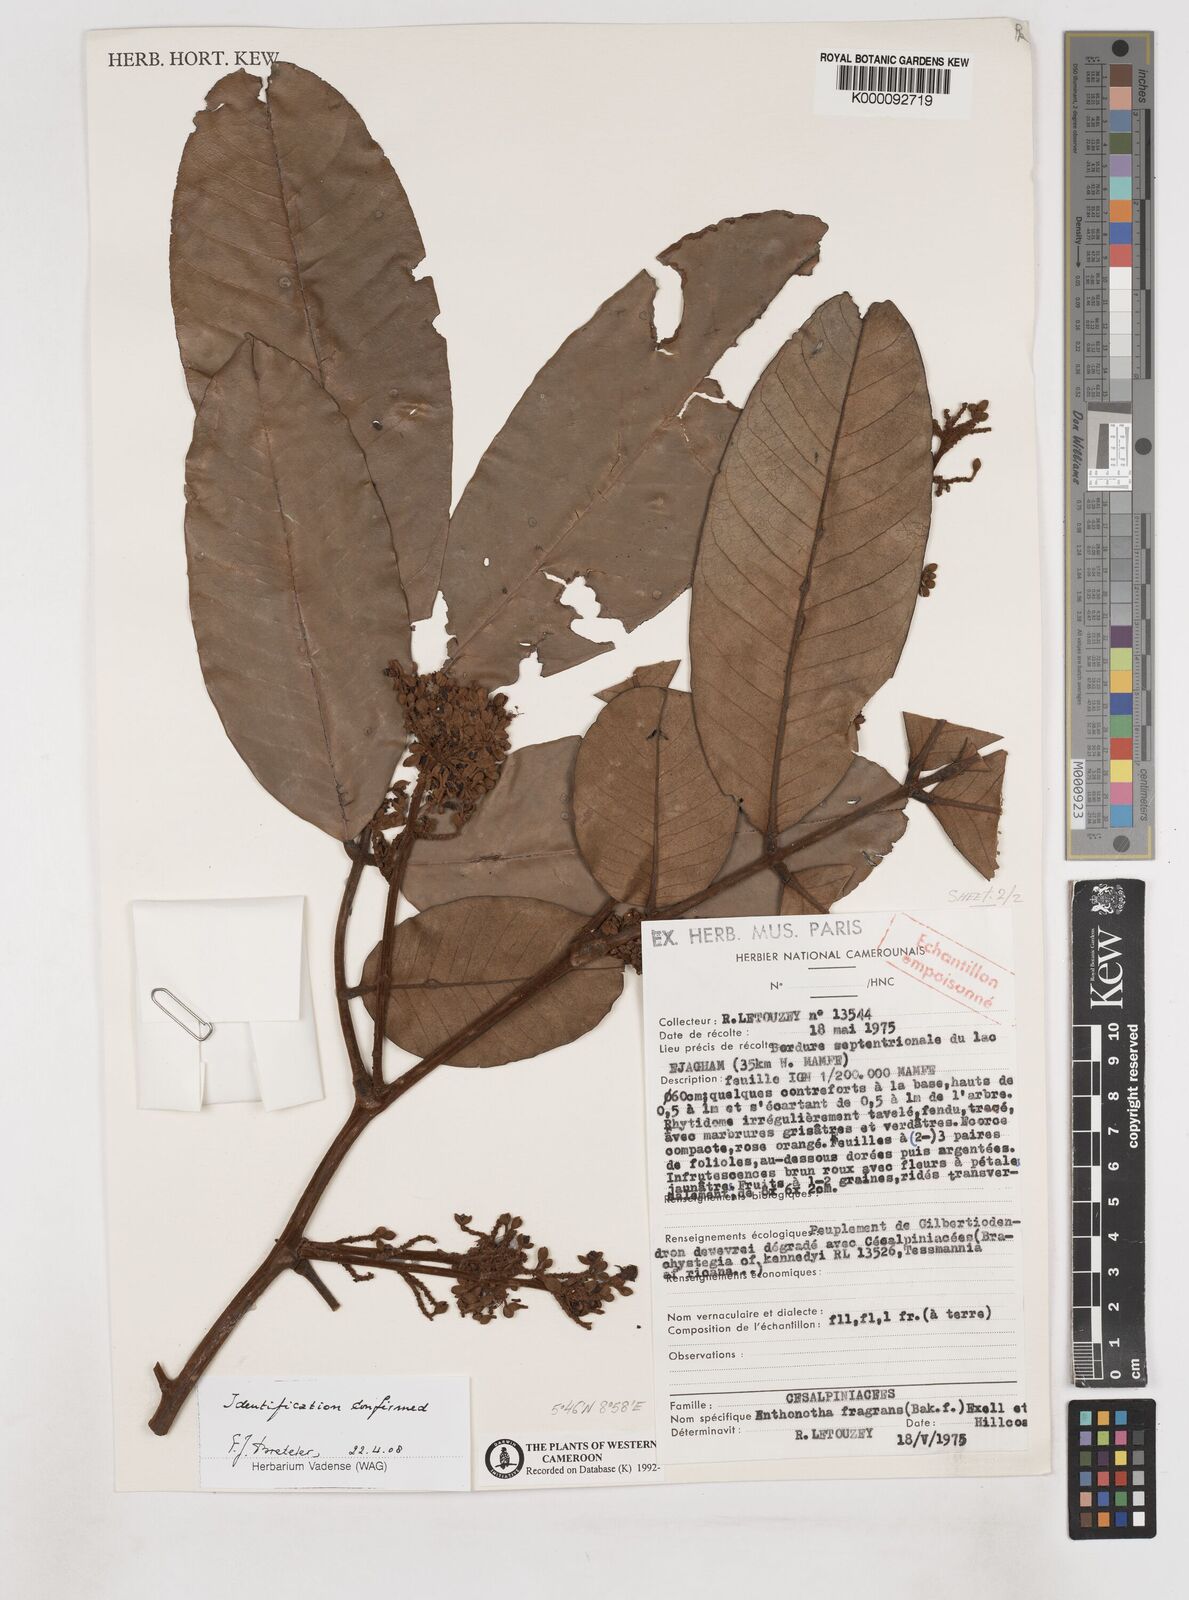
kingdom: Plantae
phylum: Tracheophyta
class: Magnoliopsida
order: Fabales
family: Fabaceae
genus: Anthonotha
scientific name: Anthonotha fragrans
